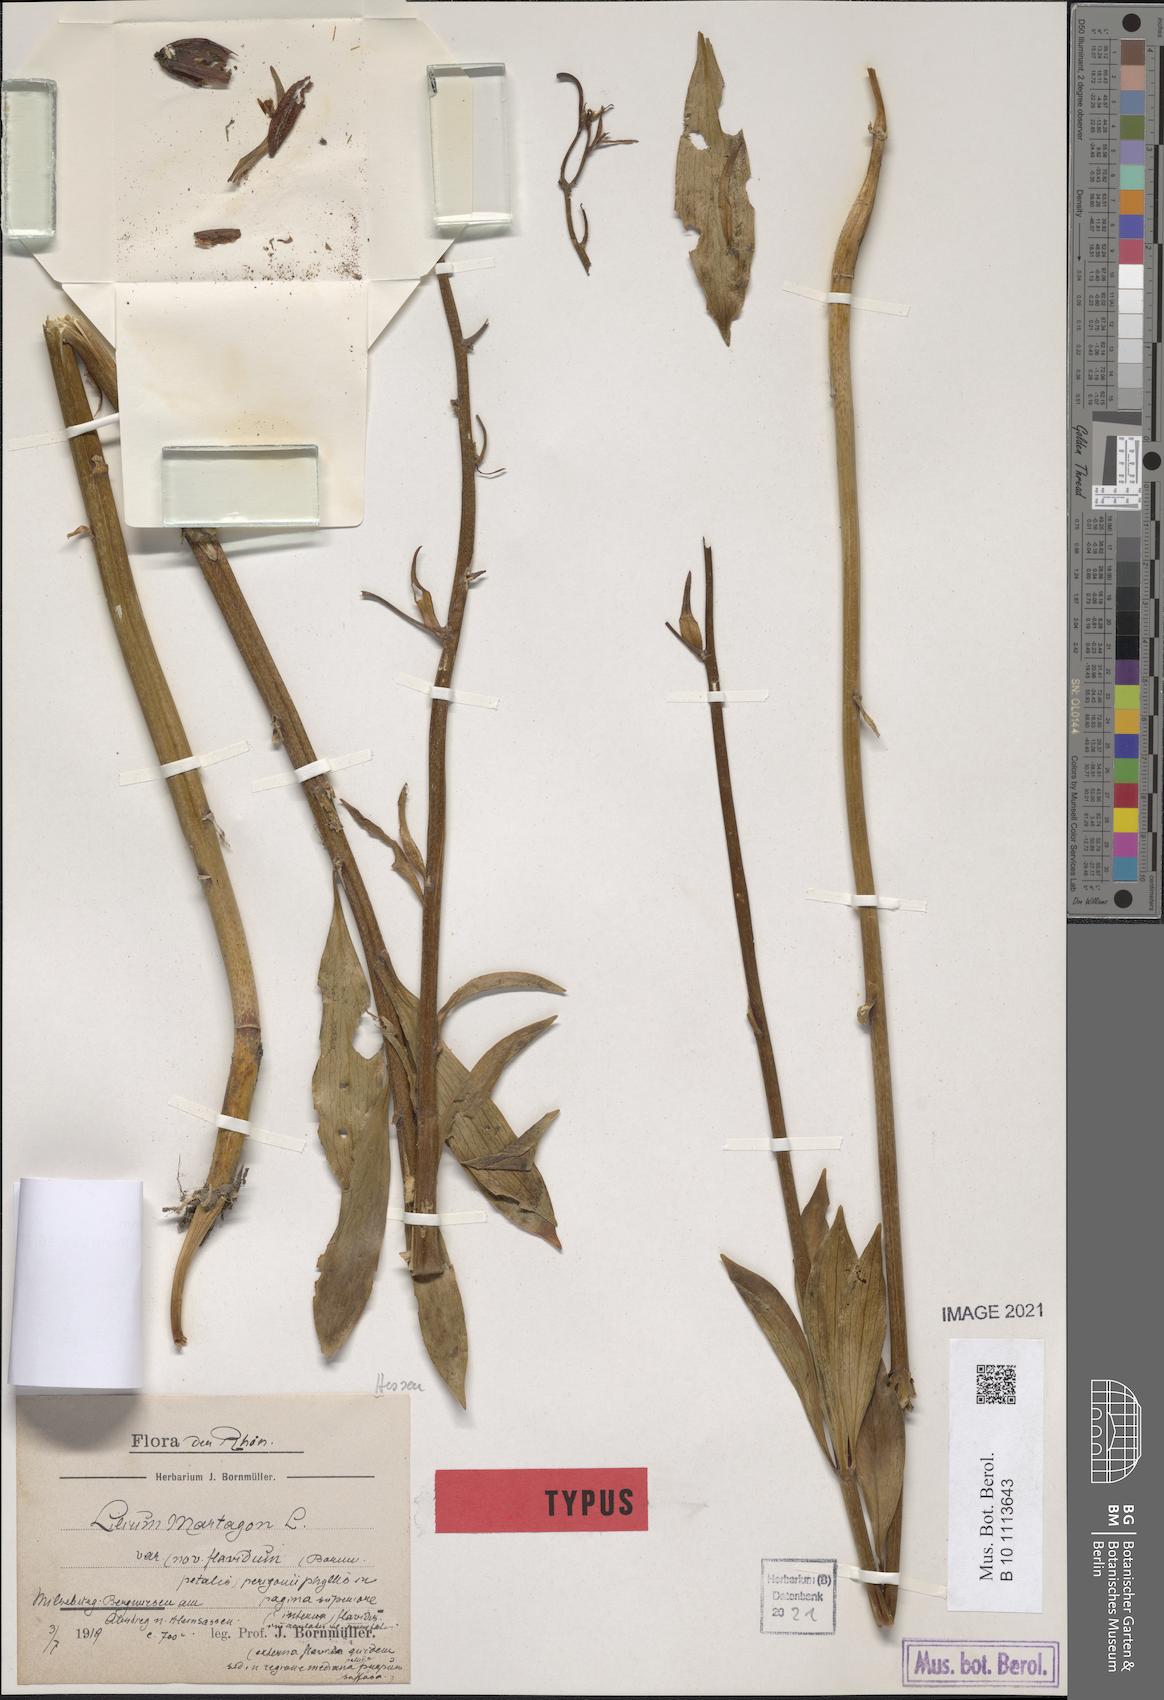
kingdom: Plantae
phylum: Tracheophyta
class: Liliopsida
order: Liliales
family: Liliaceae
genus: Lilium
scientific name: Lilium martagon
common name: Martagon lily
